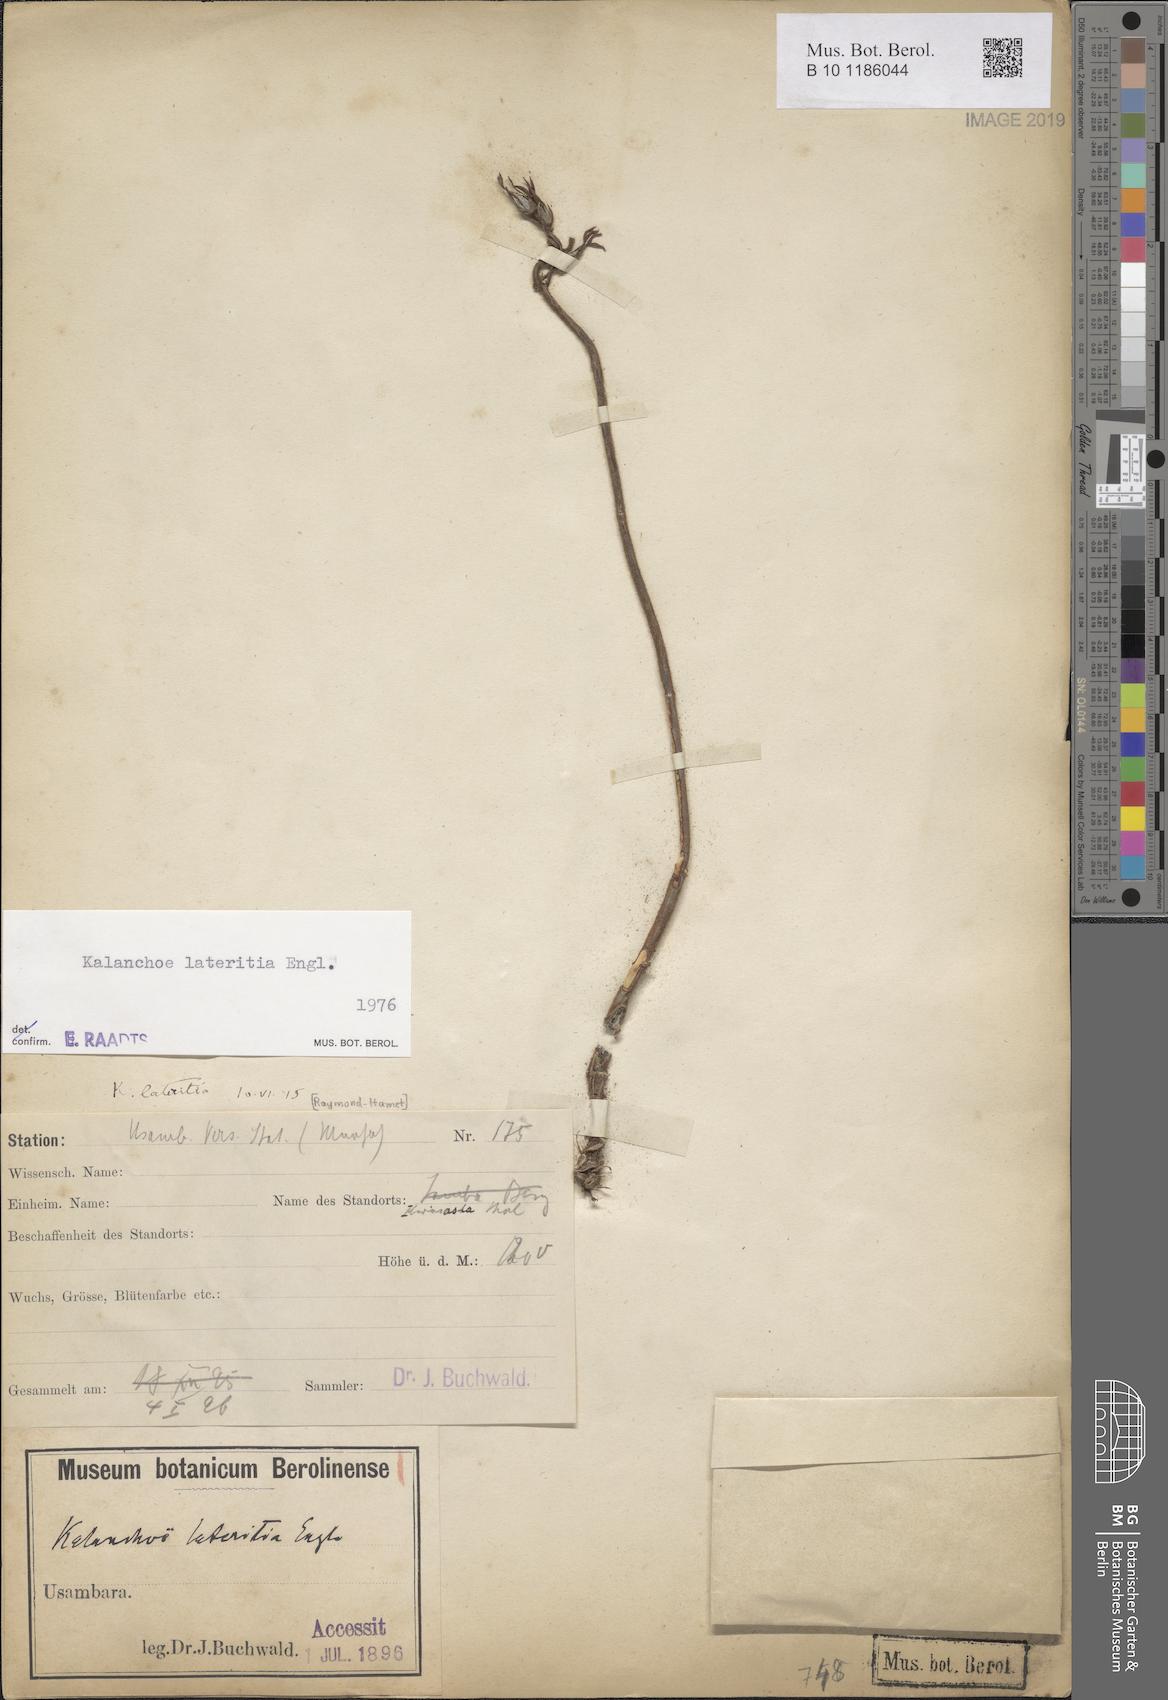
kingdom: Plantae
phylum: Tracheophyta
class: Magnoliopsida
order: Saxifragales
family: Crassulaceae
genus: Kalanchoe
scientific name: Kalanchoe lateritia
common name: Kalanchoe
